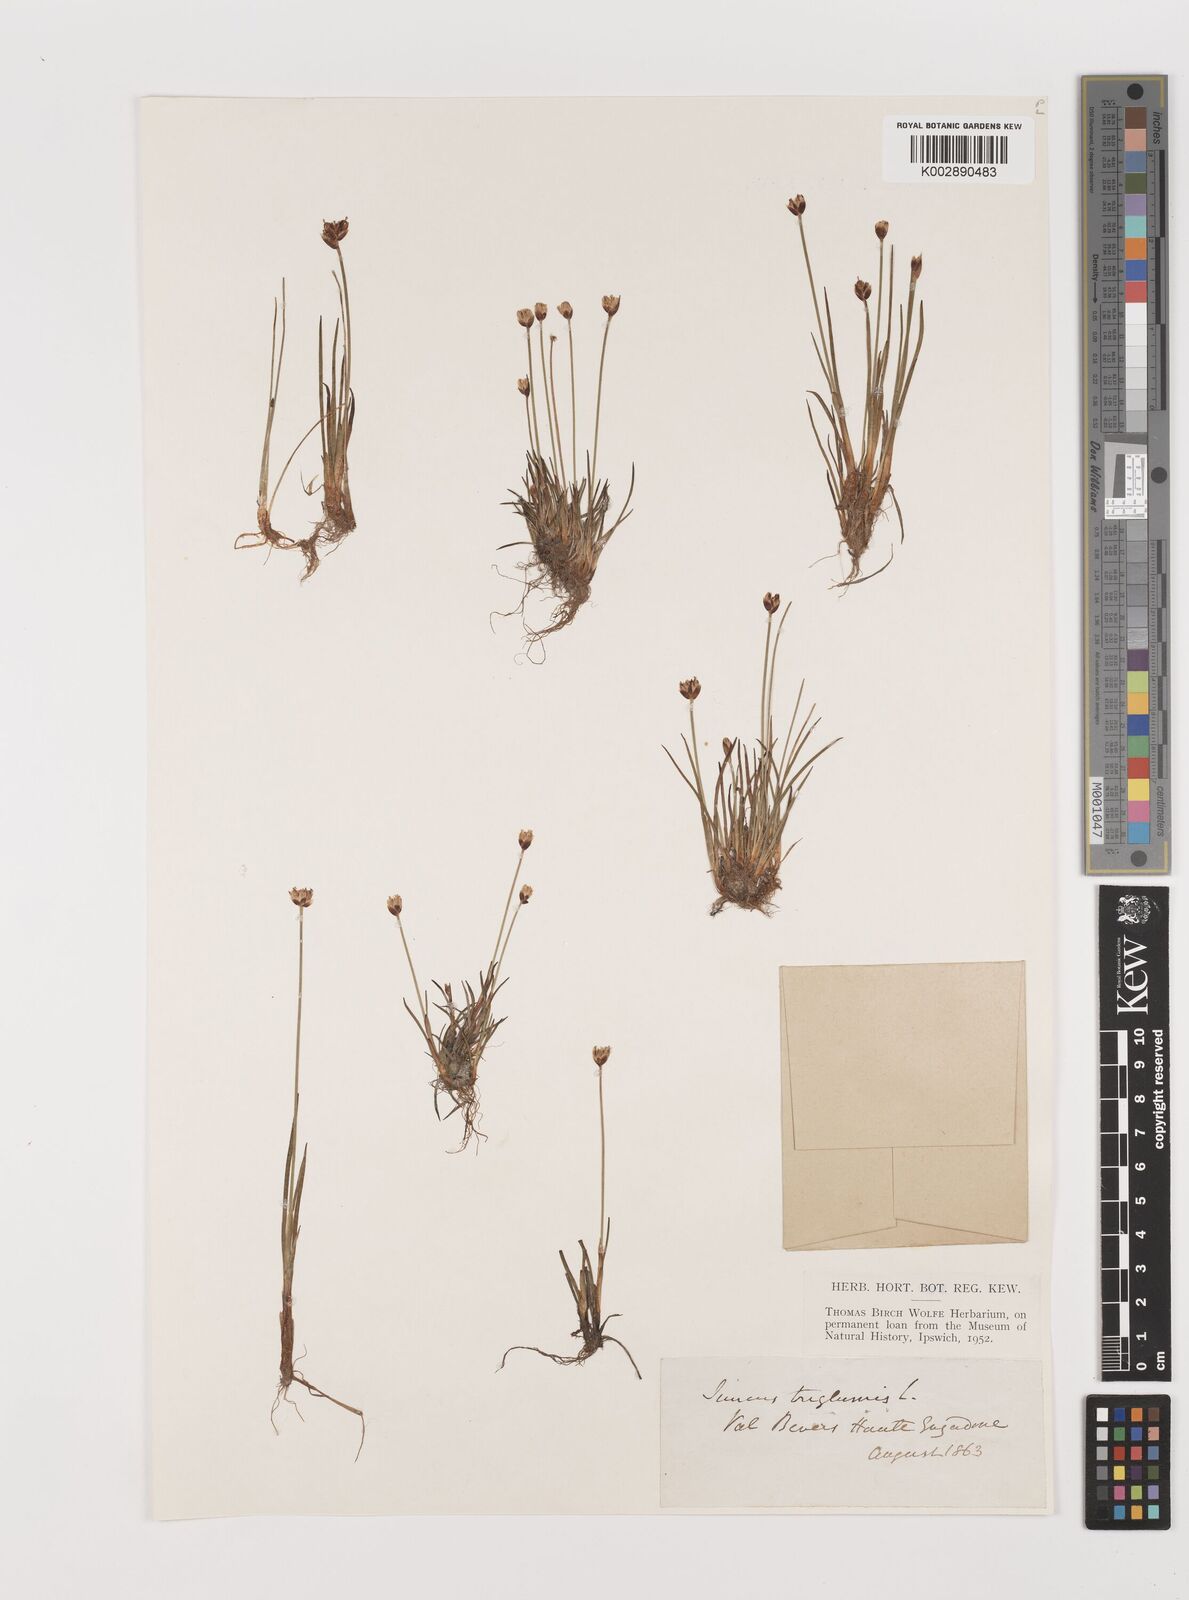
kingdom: Plantae
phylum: Tracheophyta
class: Liliopsida
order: Poales
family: Juncaceae
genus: Juncus
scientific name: Juncus triglumis
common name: Three-flowered rush
